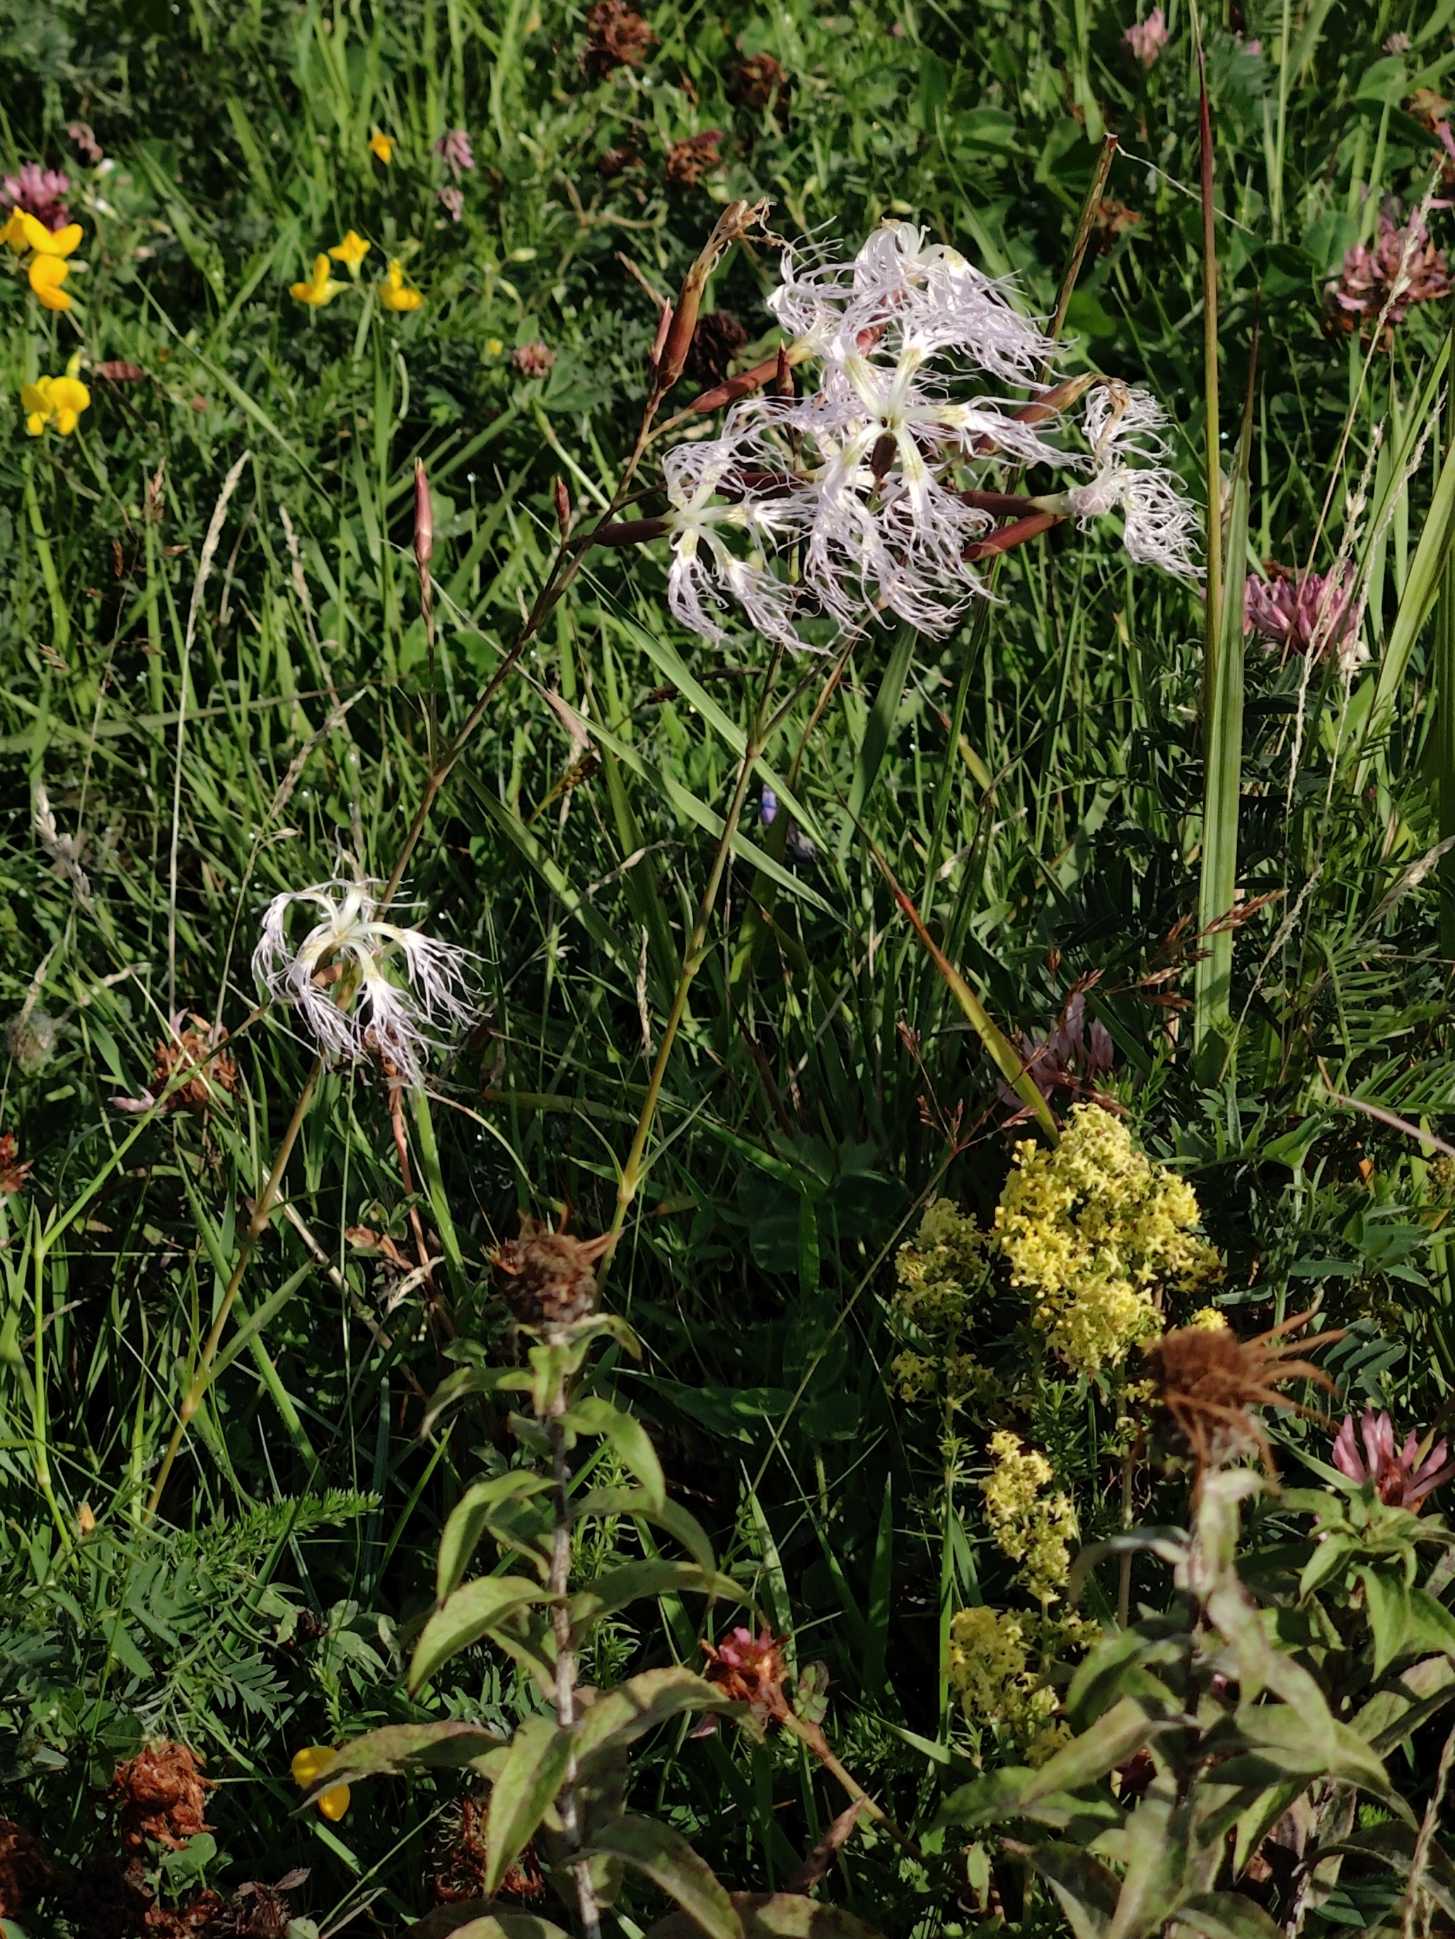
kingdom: Plantae
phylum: Tracheophyta
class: Magnoliopsida
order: Caryophyllales
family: Caryophyllaceae
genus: Dianthus
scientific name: Dianthus superbus
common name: Strand-nellike
